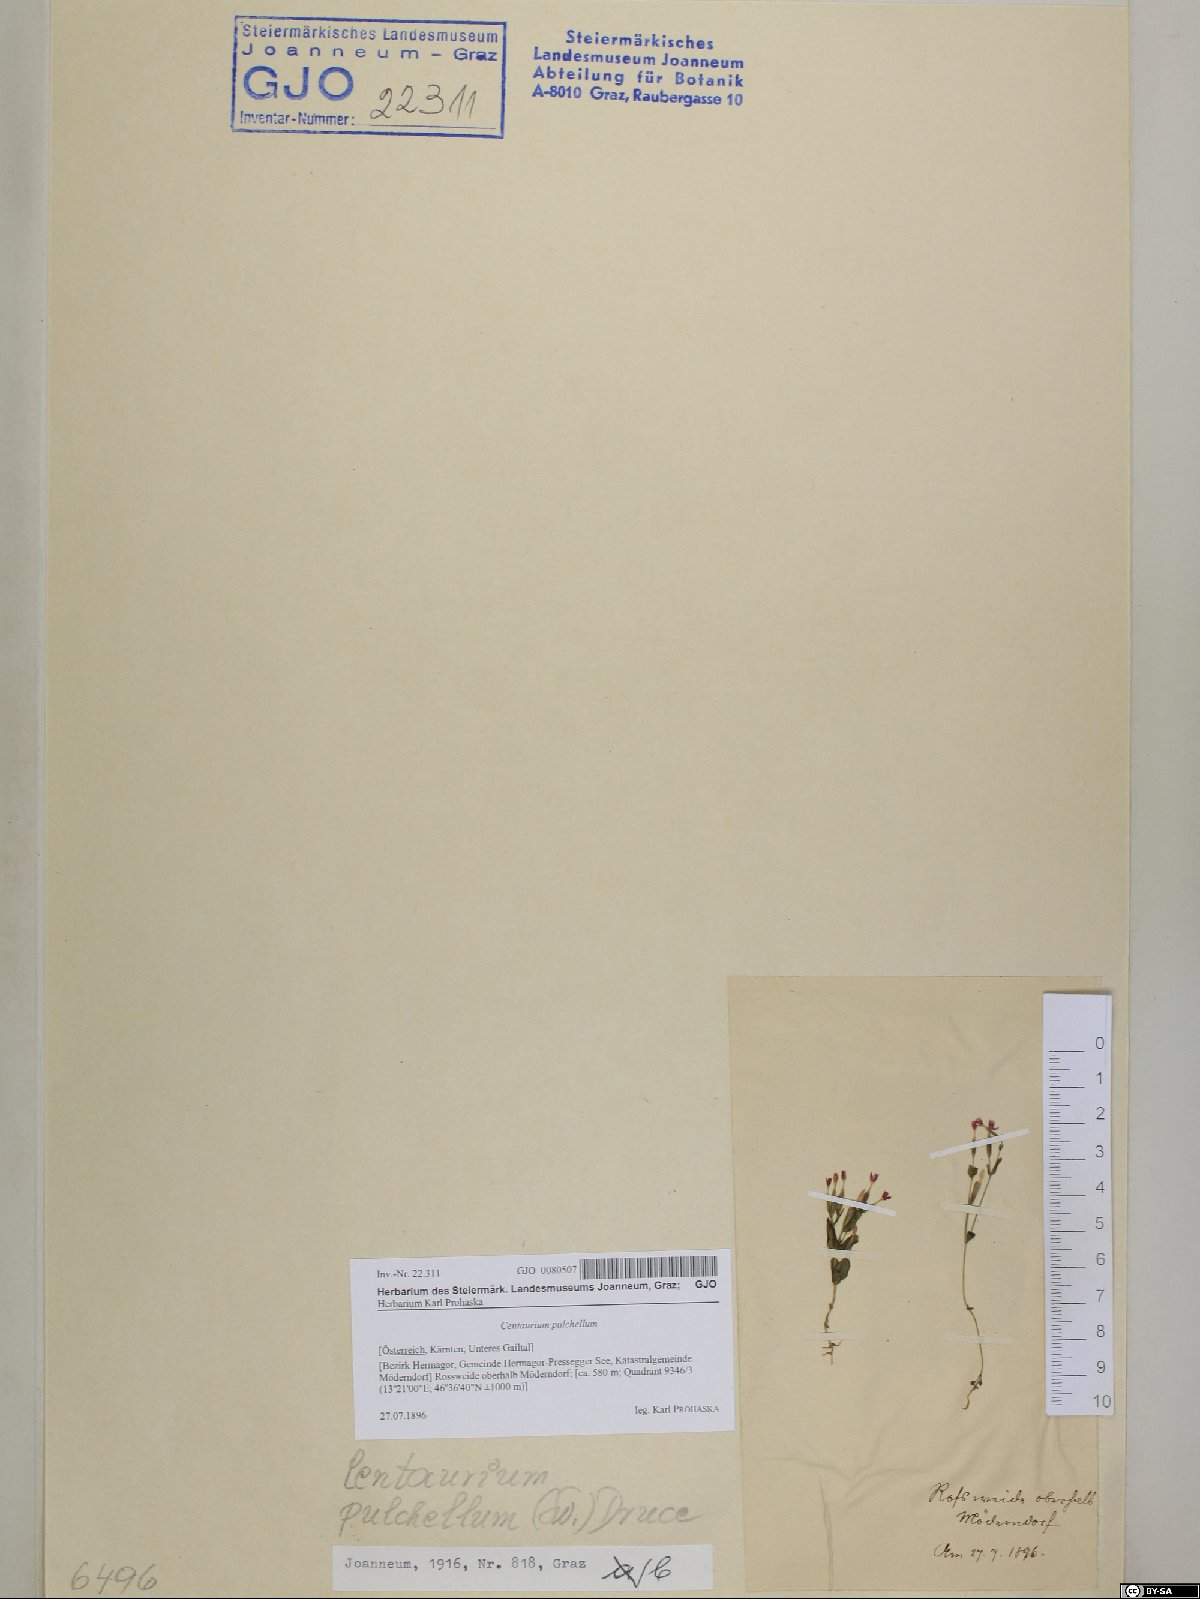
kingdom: Plantae
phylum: Tracheophyta
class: Magnoliopsida
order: Gentianales
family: Gentianaceae
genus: Centaurium
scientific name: Centaurium pulchellum
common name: Lesser centaury
